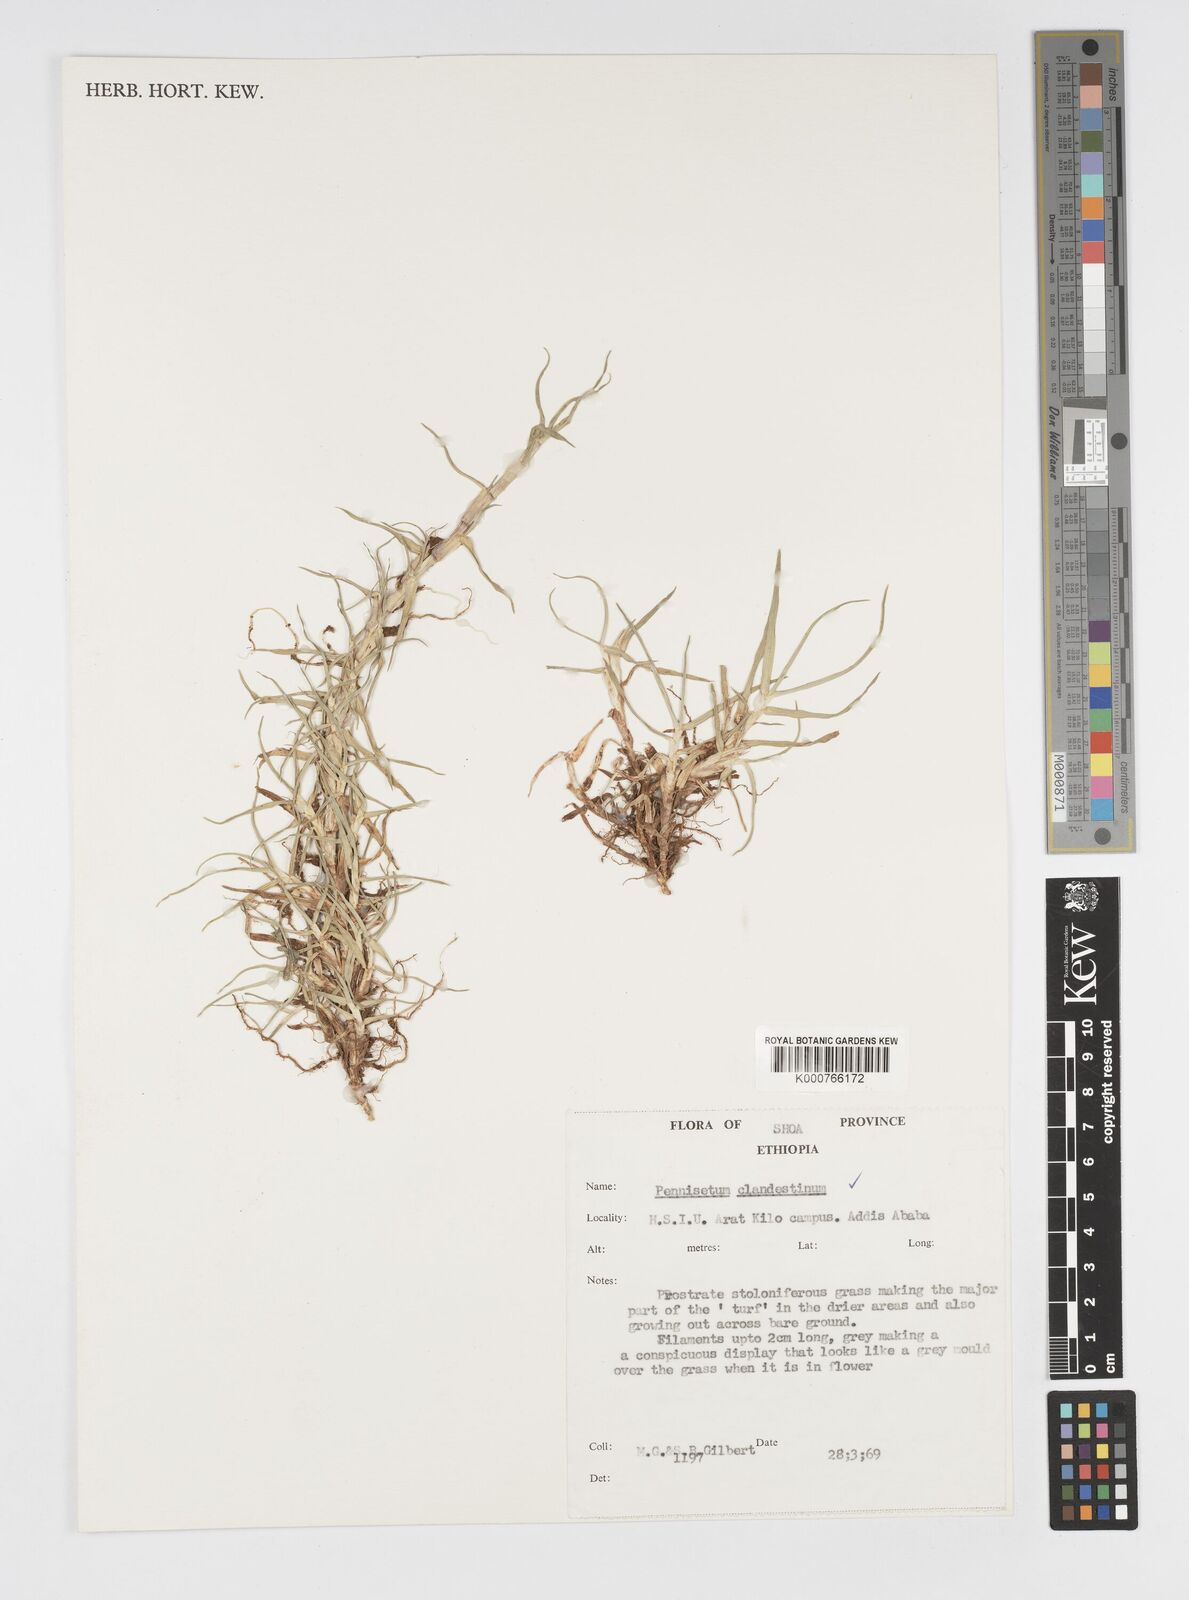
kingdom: Plantae
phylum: Tracheophyta
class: Liliopsida
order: Poales
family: Poaceae
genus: Cenchrus
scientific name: Cenchrus clandestinus
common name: Kikuyugrass
